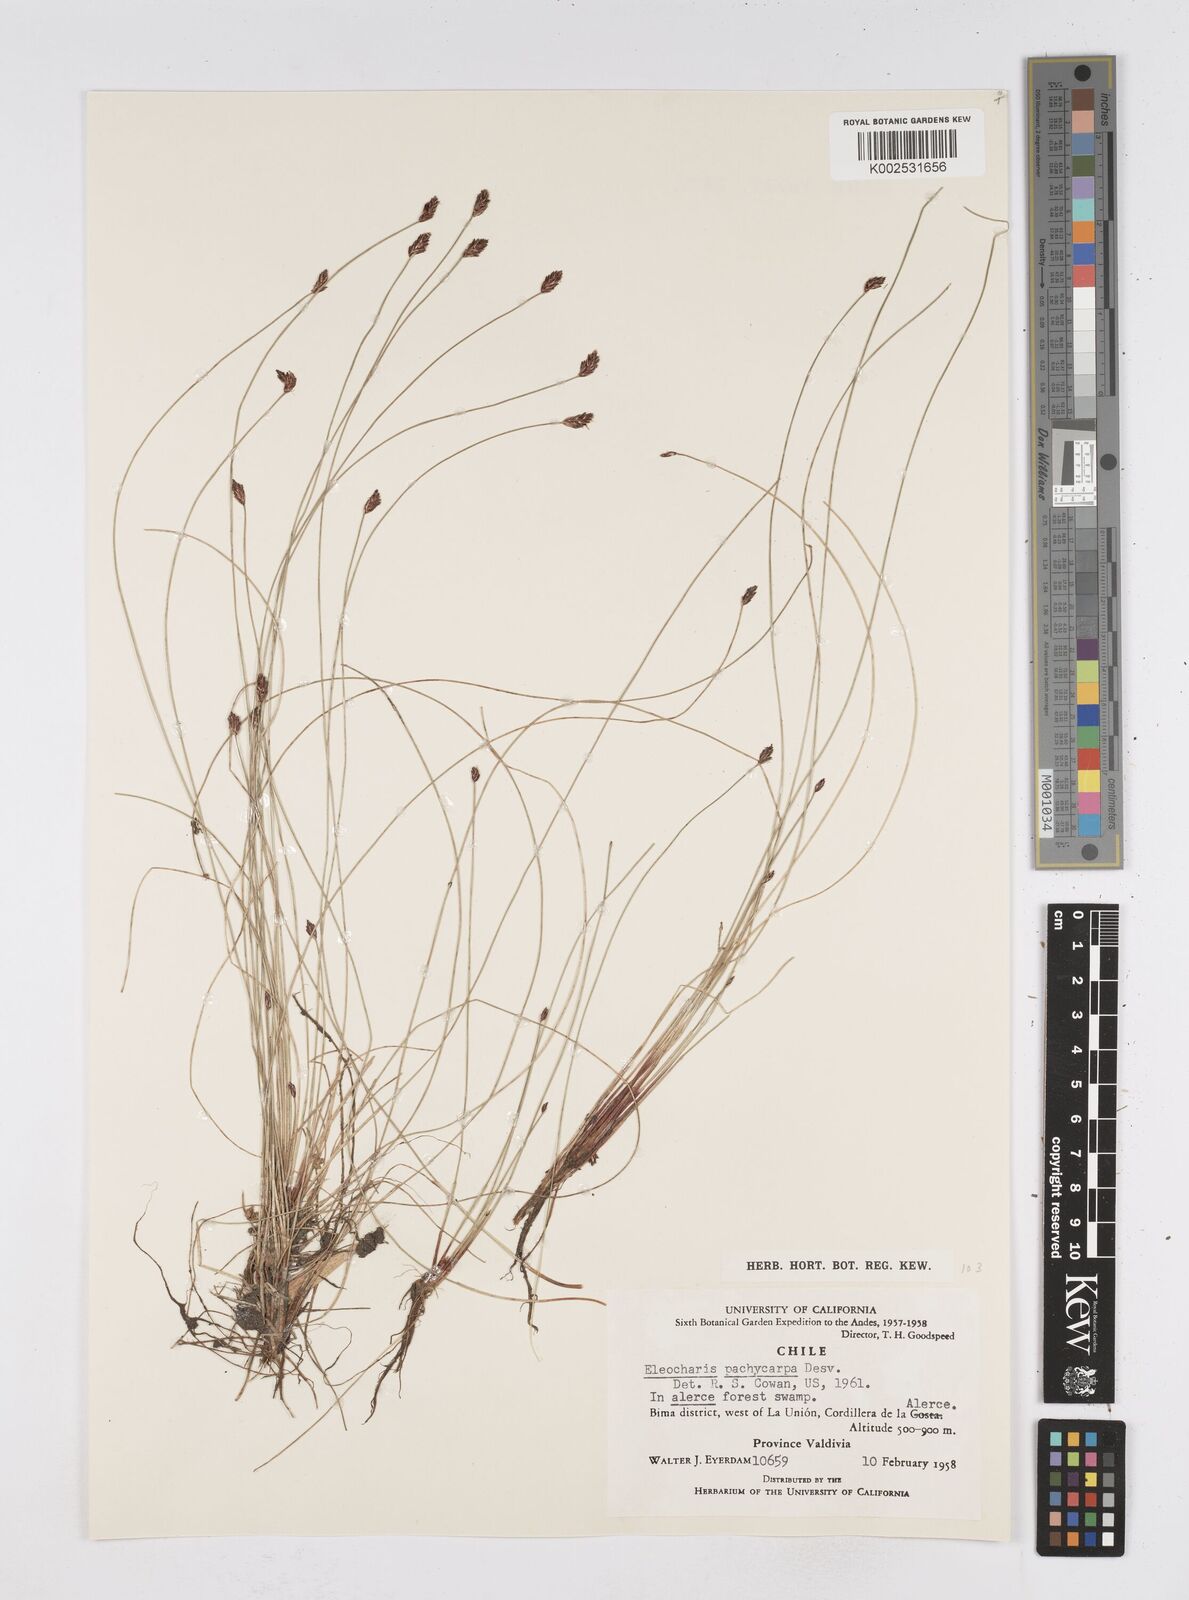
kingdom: Plantae
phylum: Tracheophyta
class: Liliopsida
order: Poales
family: Cyperaceae
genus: Eleocharis
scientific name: Eleocharis pachycarpa
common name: Black sand spikerush
